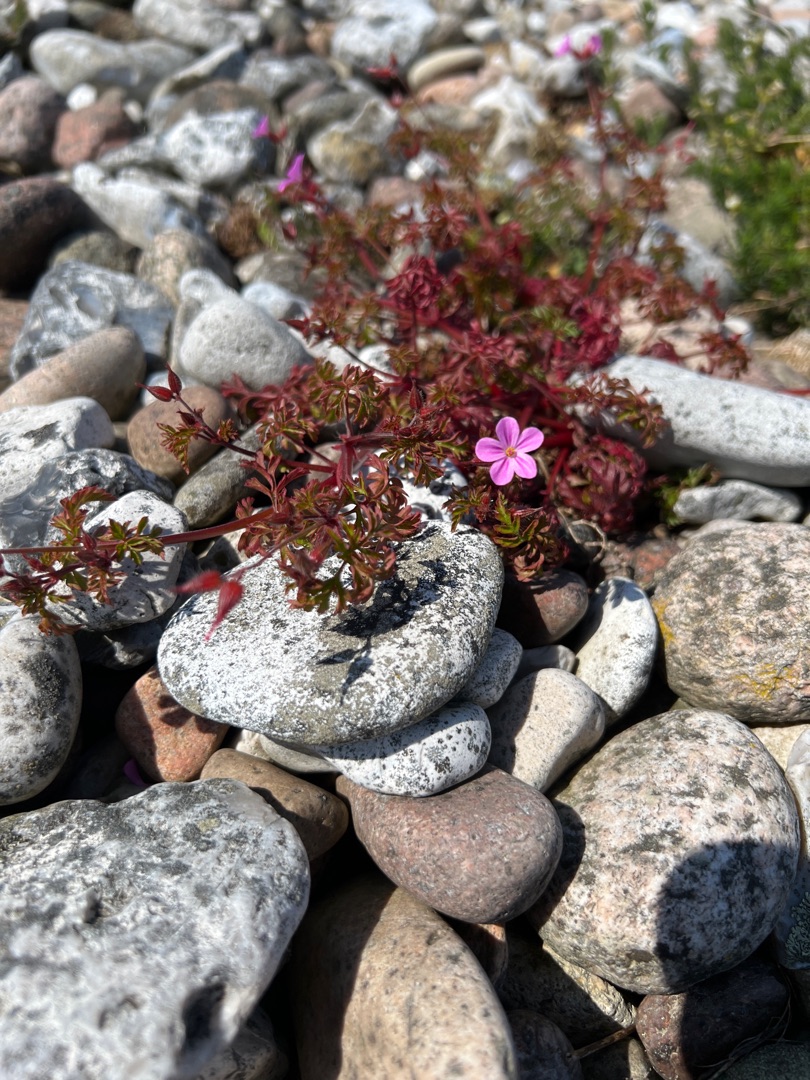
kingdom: Plantae
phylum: Tracheophyta
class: Magnoliopsida
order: Geraniales
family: Geraniaceae
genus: Geranium
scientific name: Geranium purpureum
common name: Strand-storkenæb
